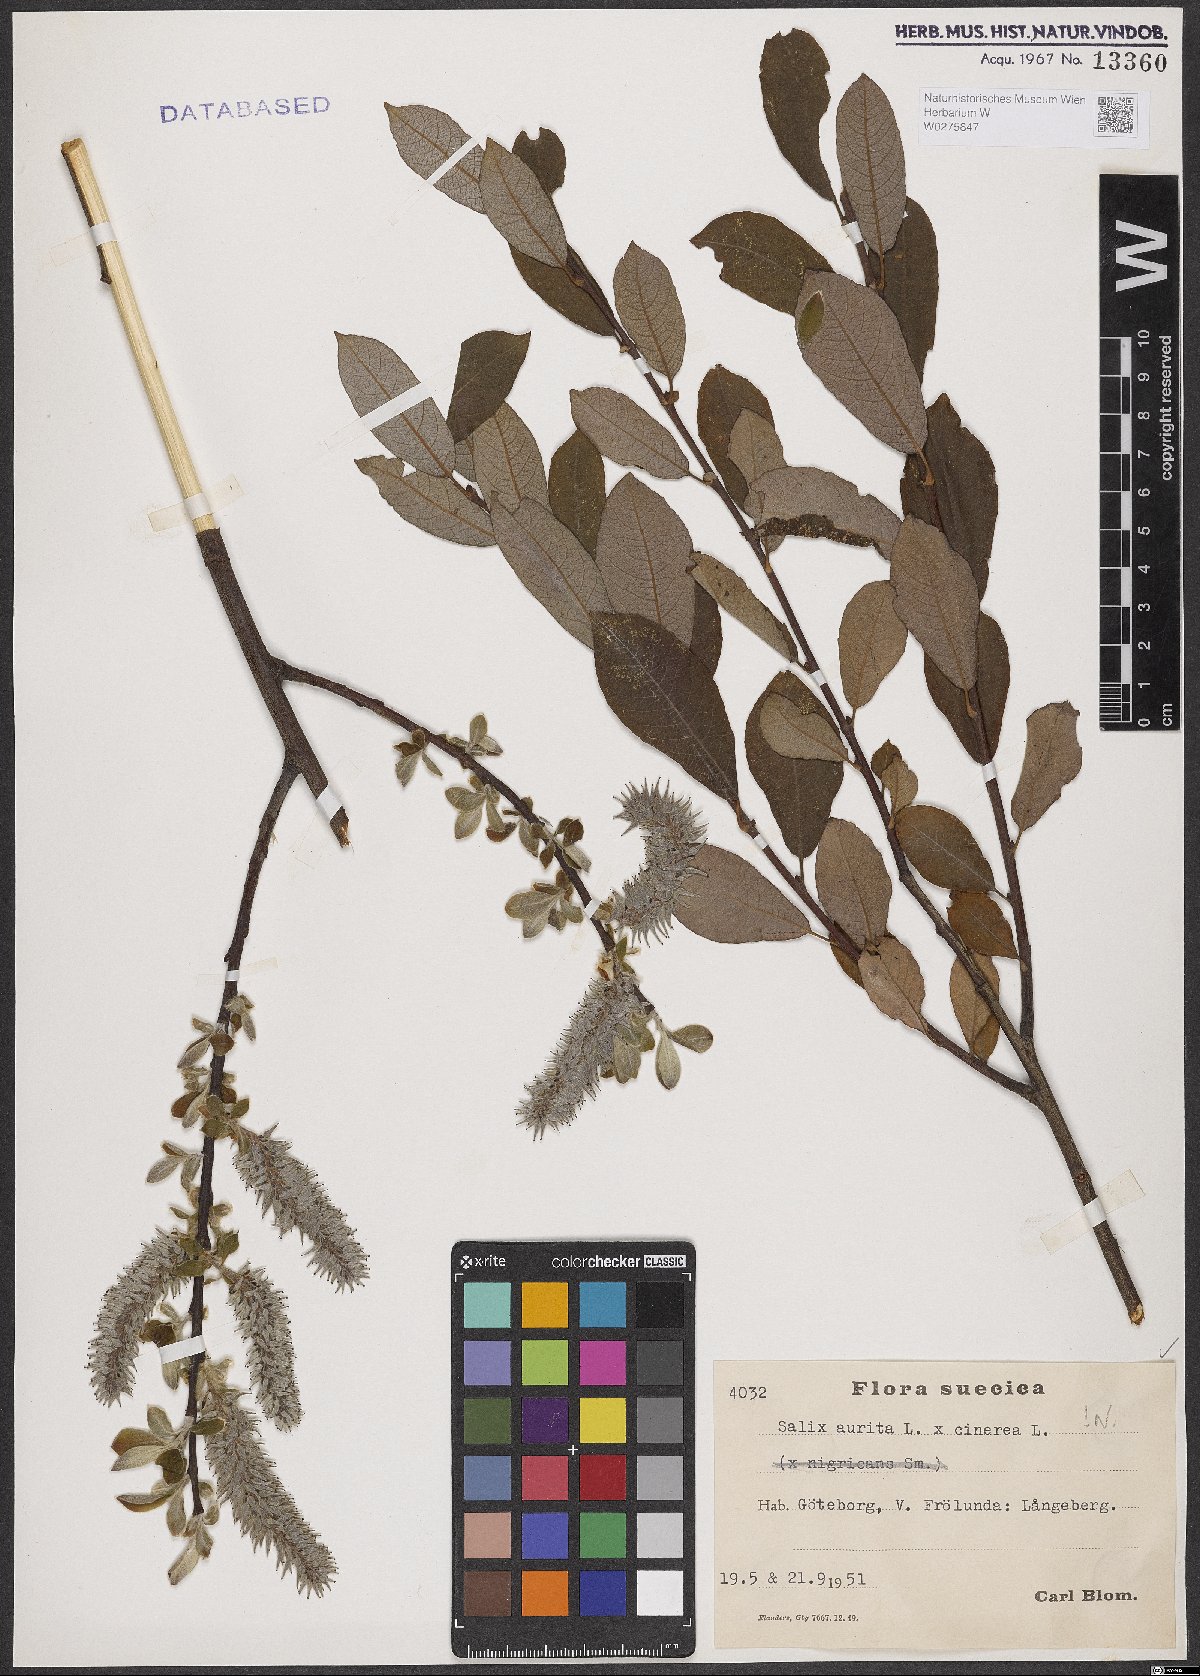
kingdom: Plantae
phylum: Tracheophyta
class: Magnoliopsida
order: Malpighiales
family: Salicaceae
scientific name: Salicaceae
